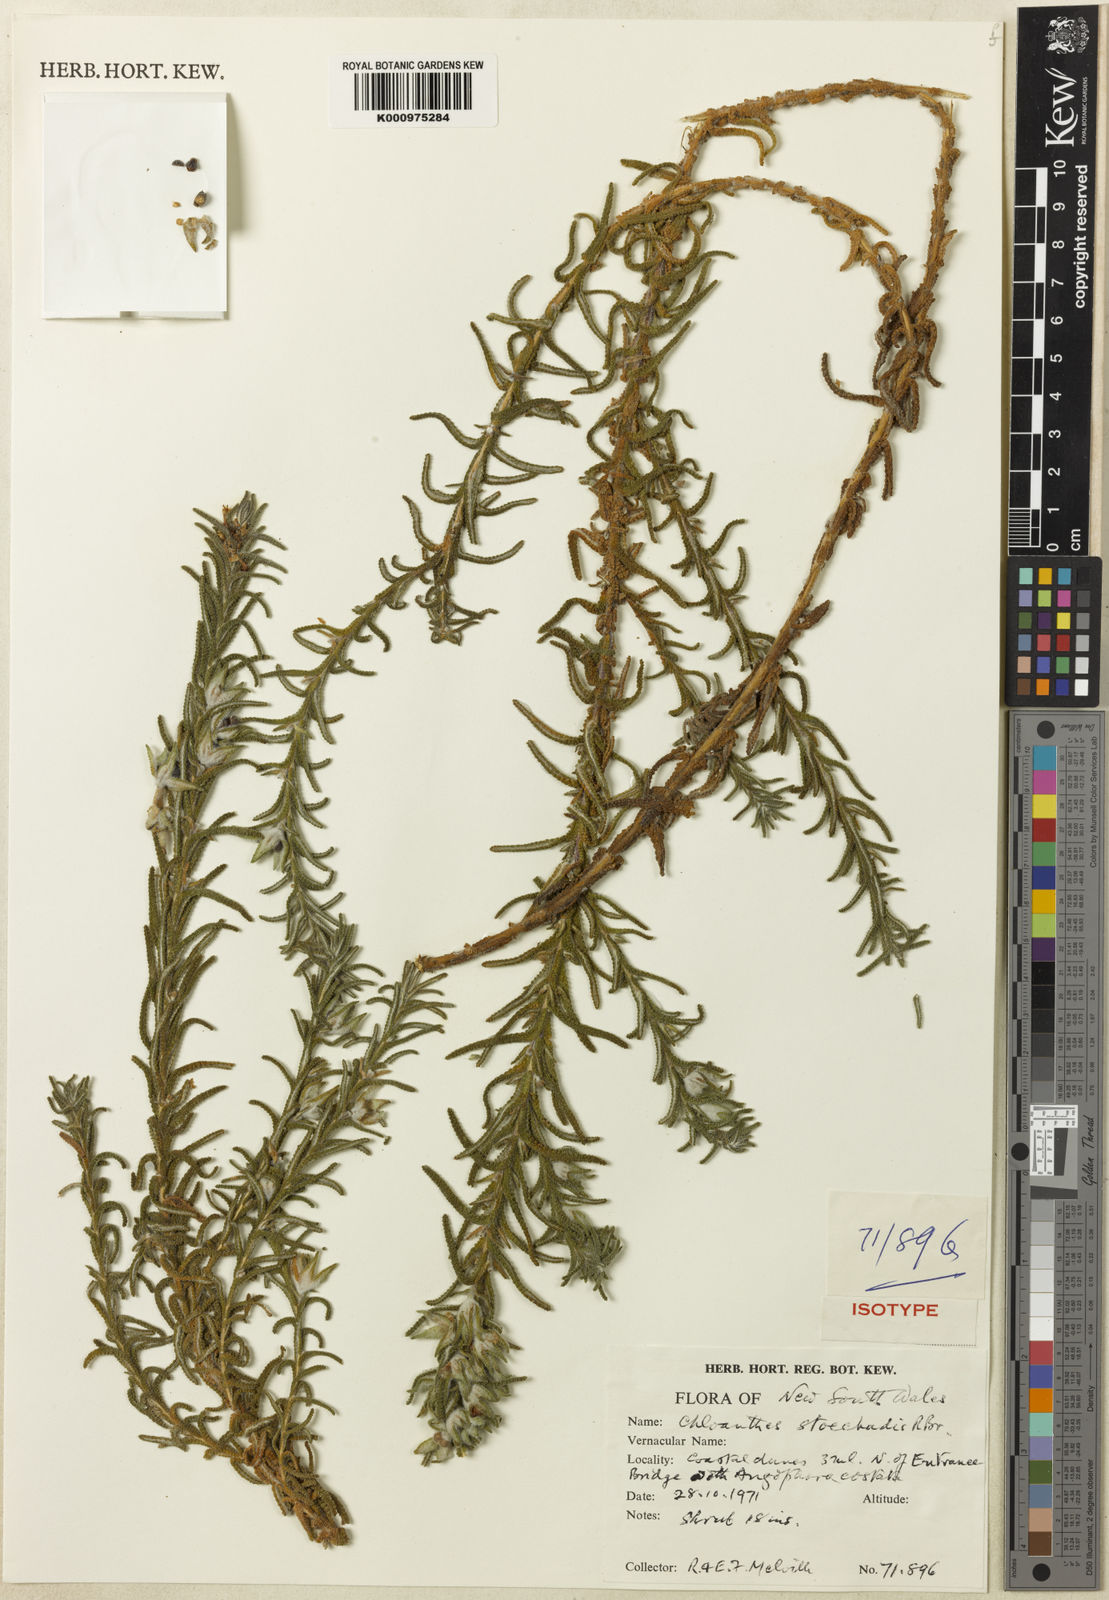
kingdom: Plantae
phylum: Tracheophyta
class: Magnoliopsida
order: Lamiales
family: Lamiaceae
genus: Chloanthes
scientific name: Chloanthes stoechadis
